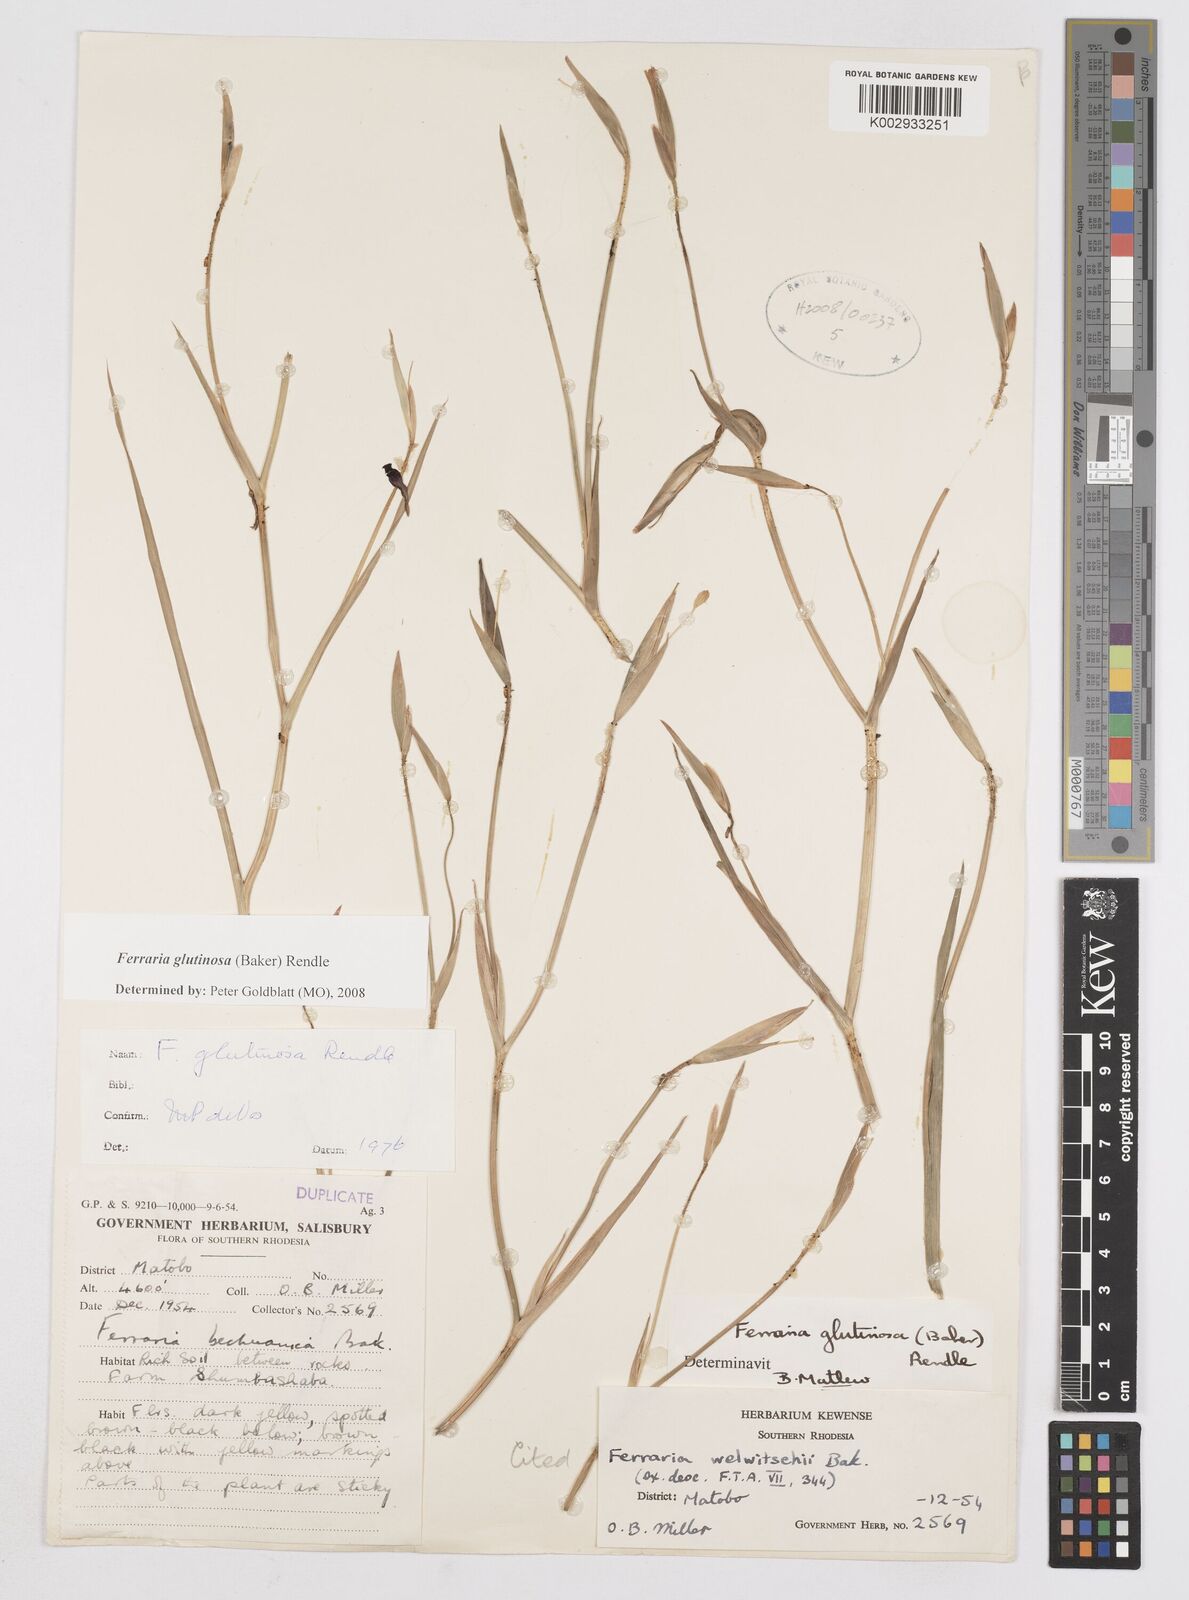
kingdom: Plantae
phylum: Tracheophyta
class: Liliopsida
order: Asparagales
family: Iridaceae
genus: Ferraria
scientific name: Ferraria glutinosa
